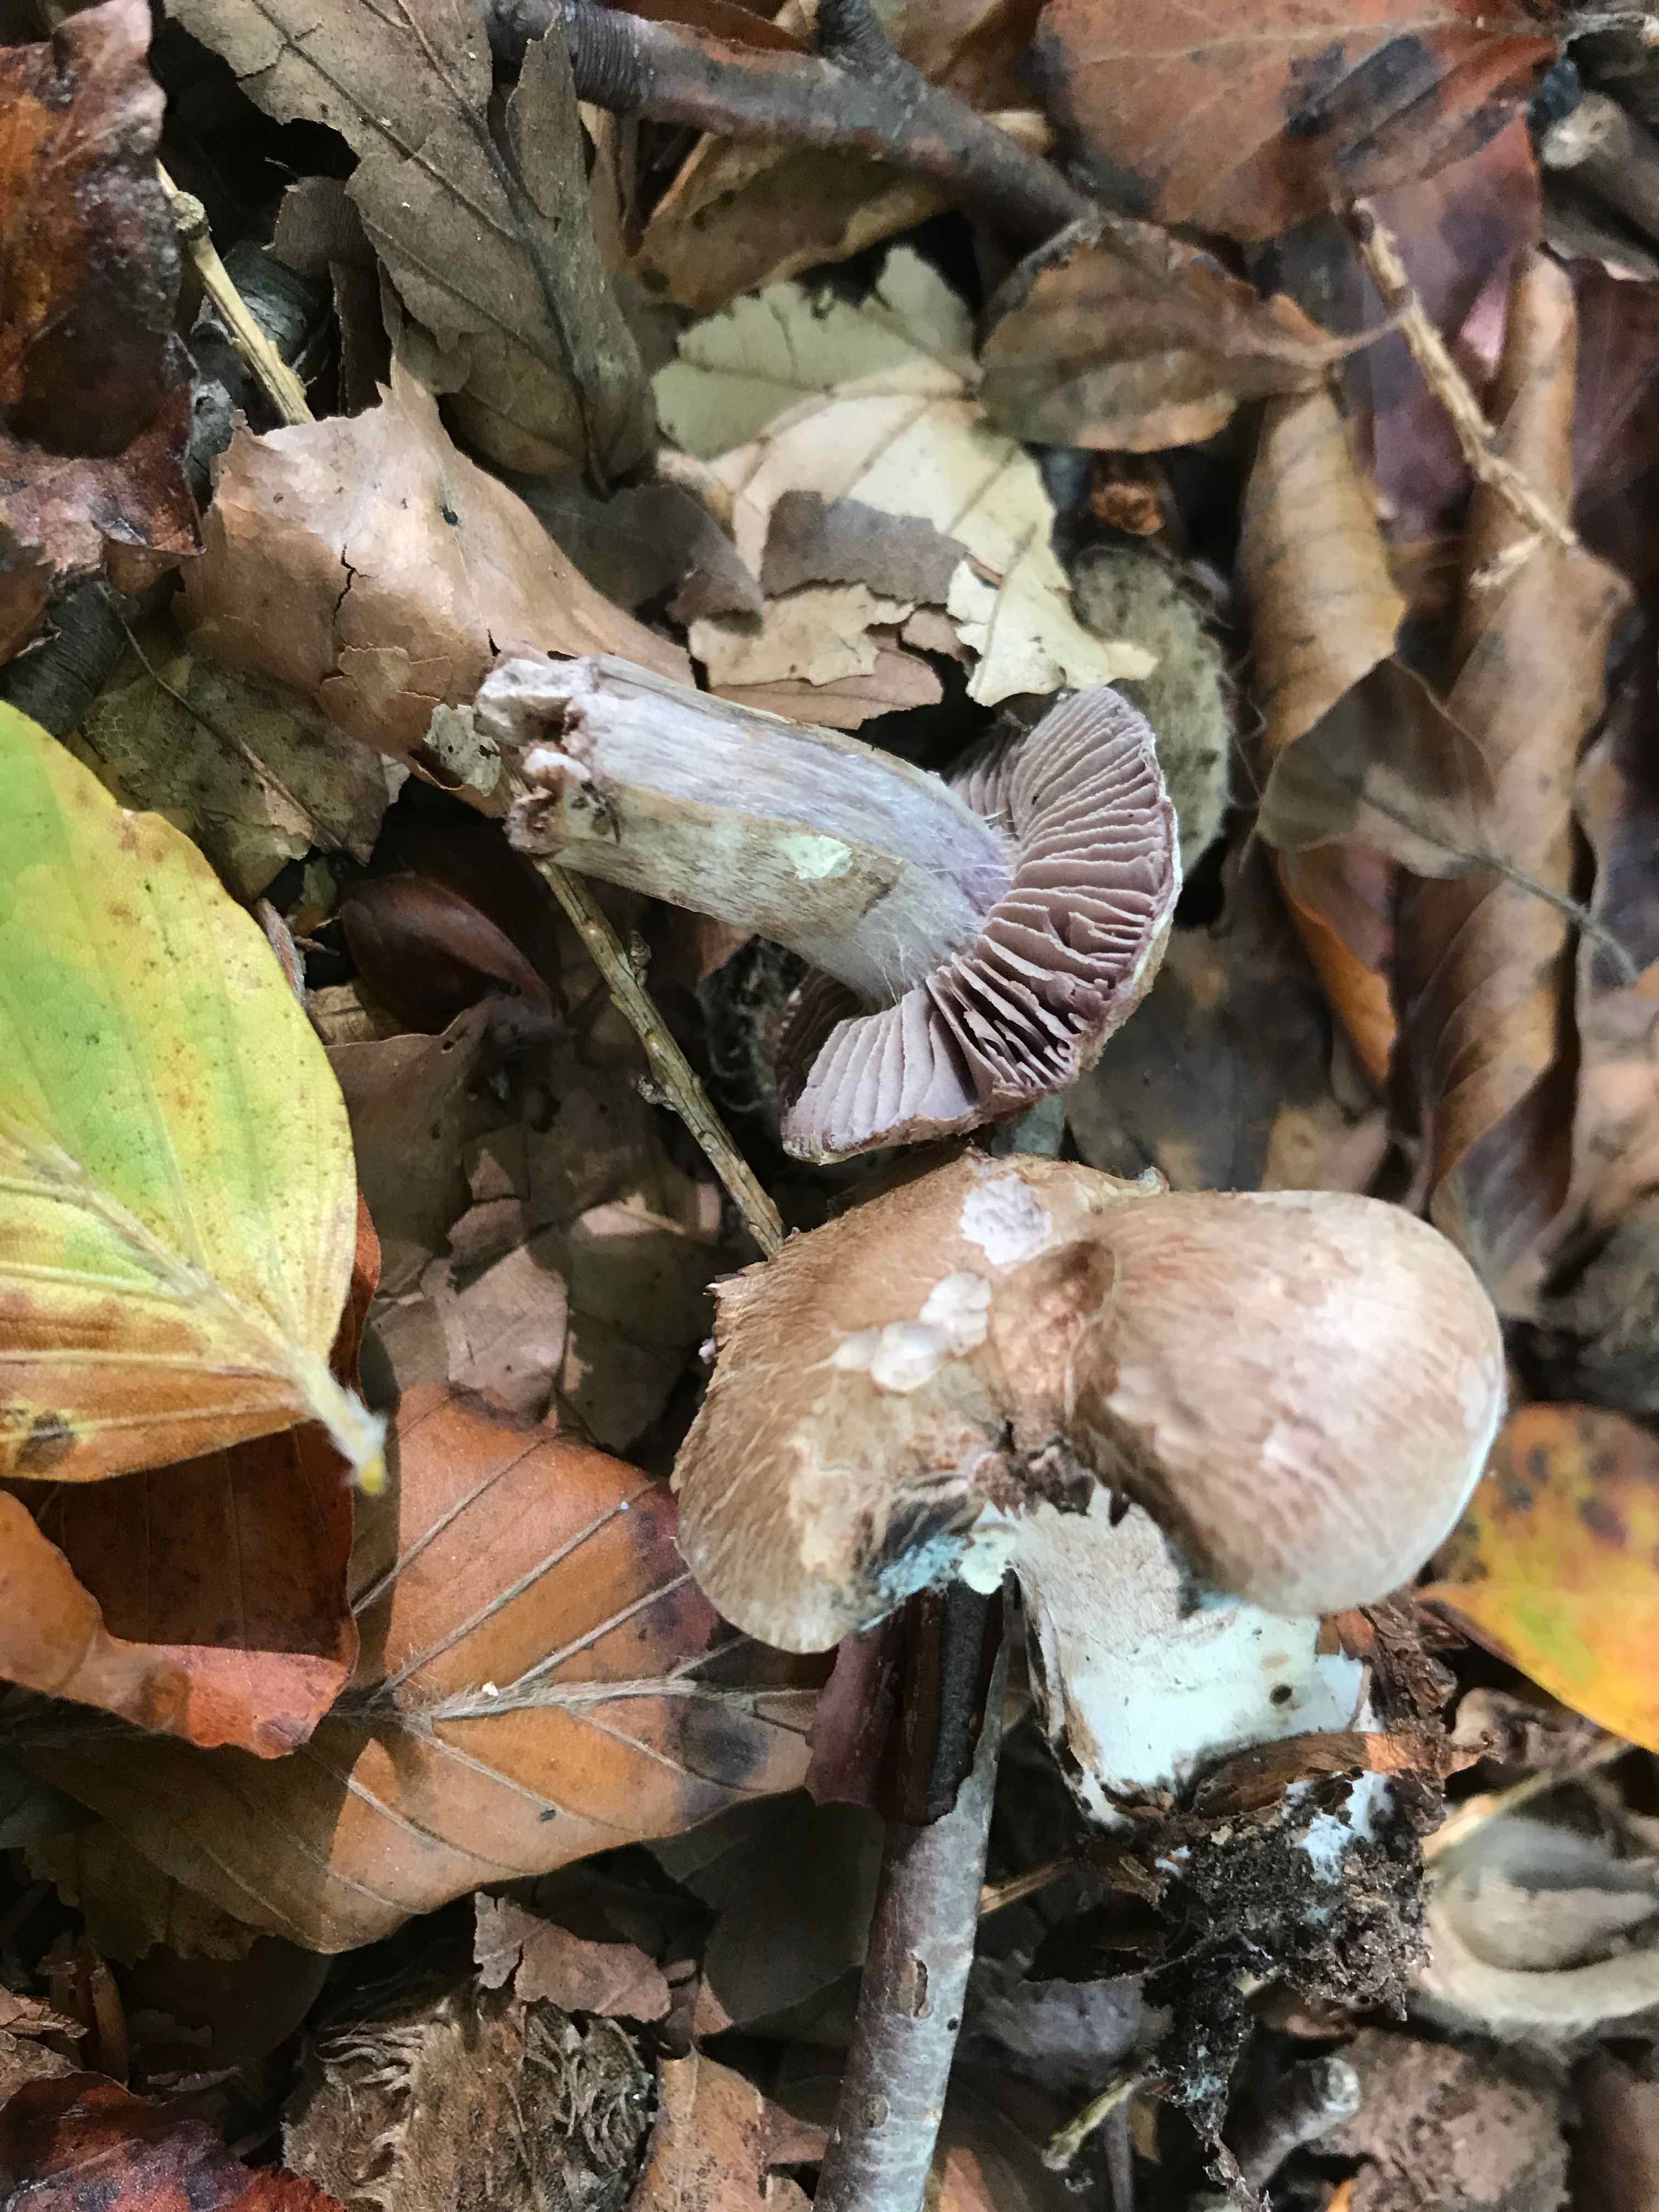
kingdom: Fungi
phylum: Basidiomycota
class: Agaricomycetes
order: Agaricales
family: Cortinariaceae
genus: Cortinarius
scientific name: Cortinarius
